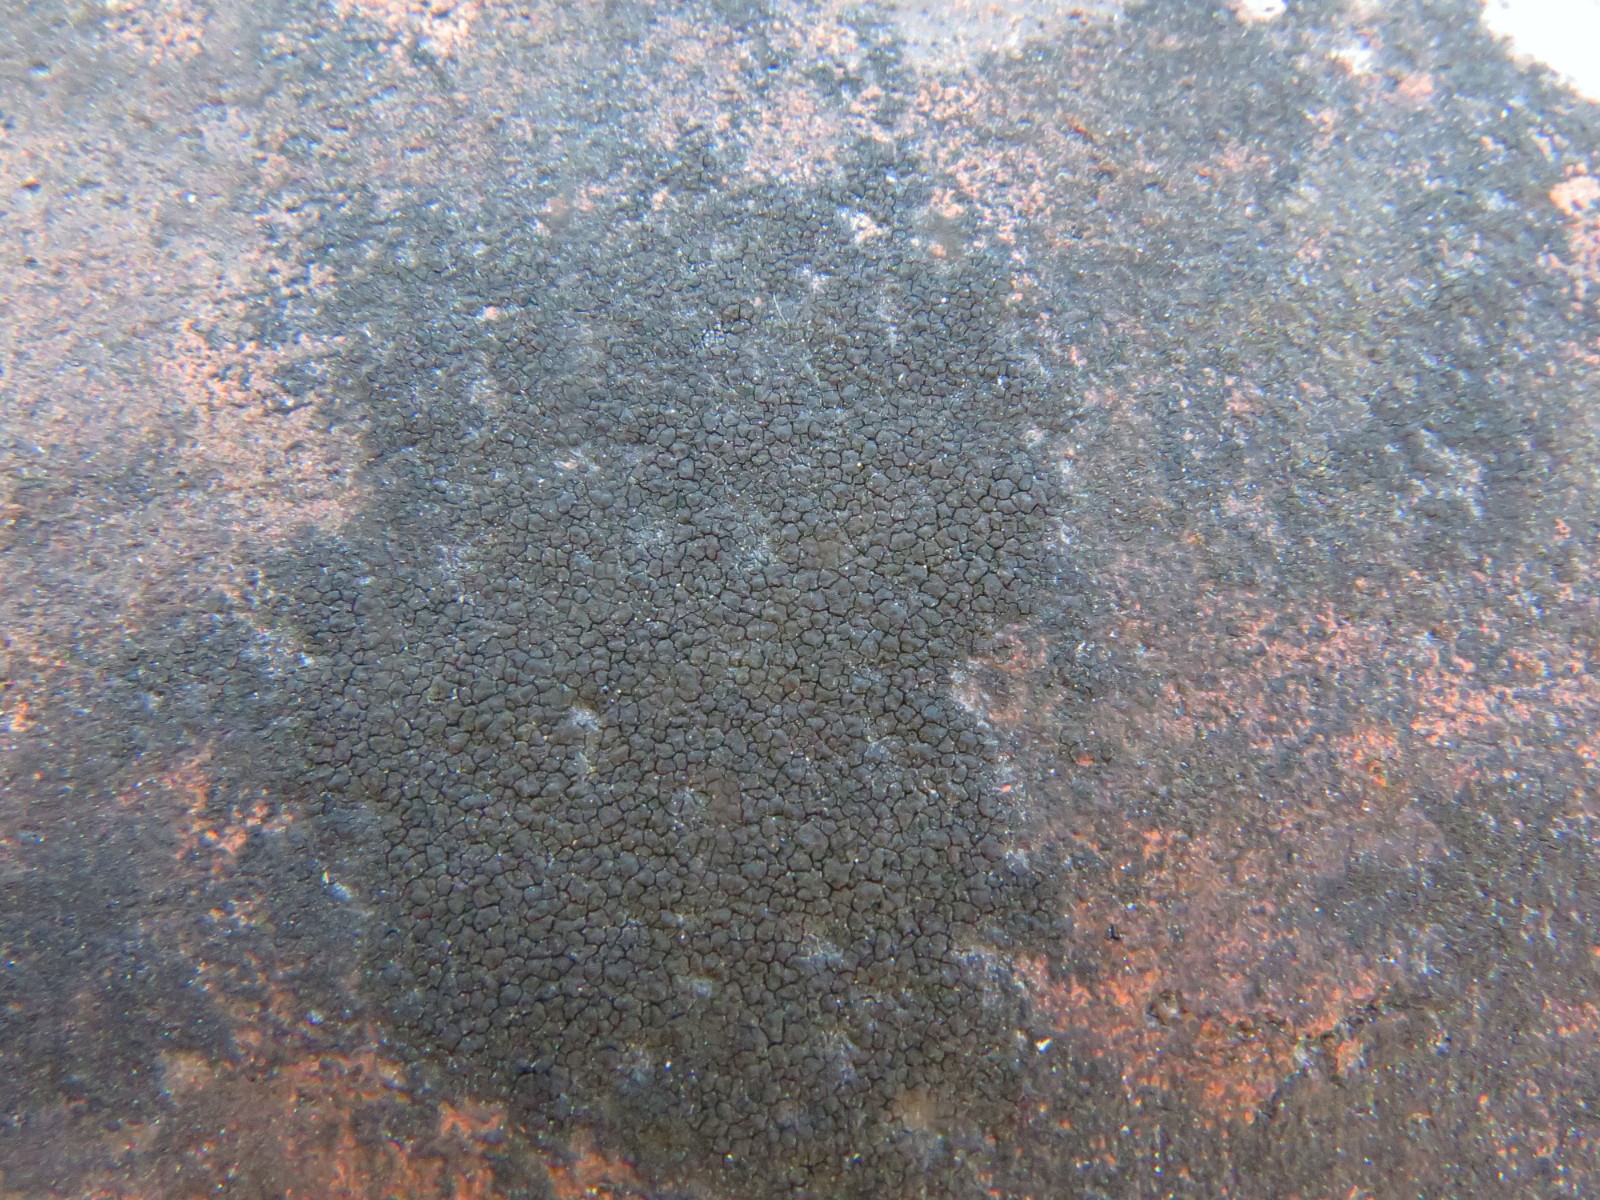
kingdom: Fungi
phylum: Ascomycota
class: Eurotiomycetes
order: Verrucariales
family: Verrucariaceae
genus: Verrucaria
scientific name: Verrucaria nigrescens
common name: sortbrun vortelav
